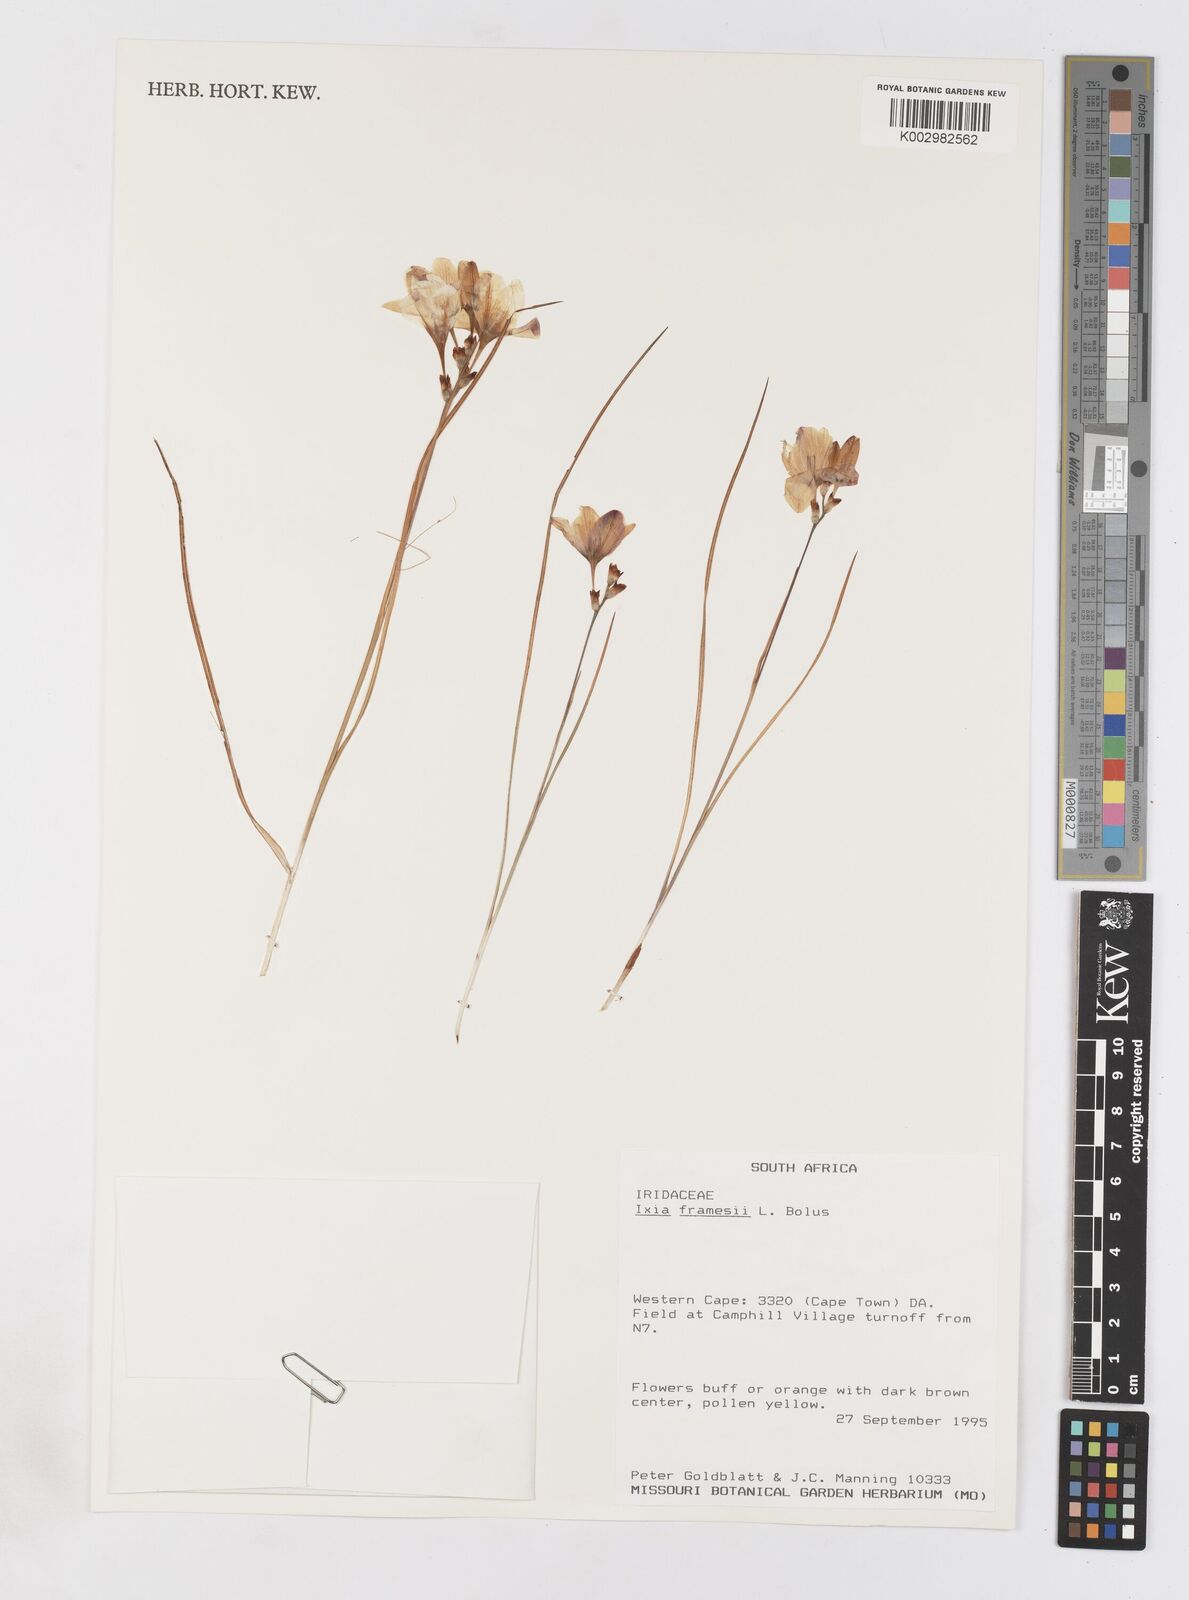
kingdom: Plantae
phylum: Tracheophyta
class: Liliopsida
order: Asparagales
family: Iridaceae
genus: Ixia
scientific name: Ixia tenuifolia
